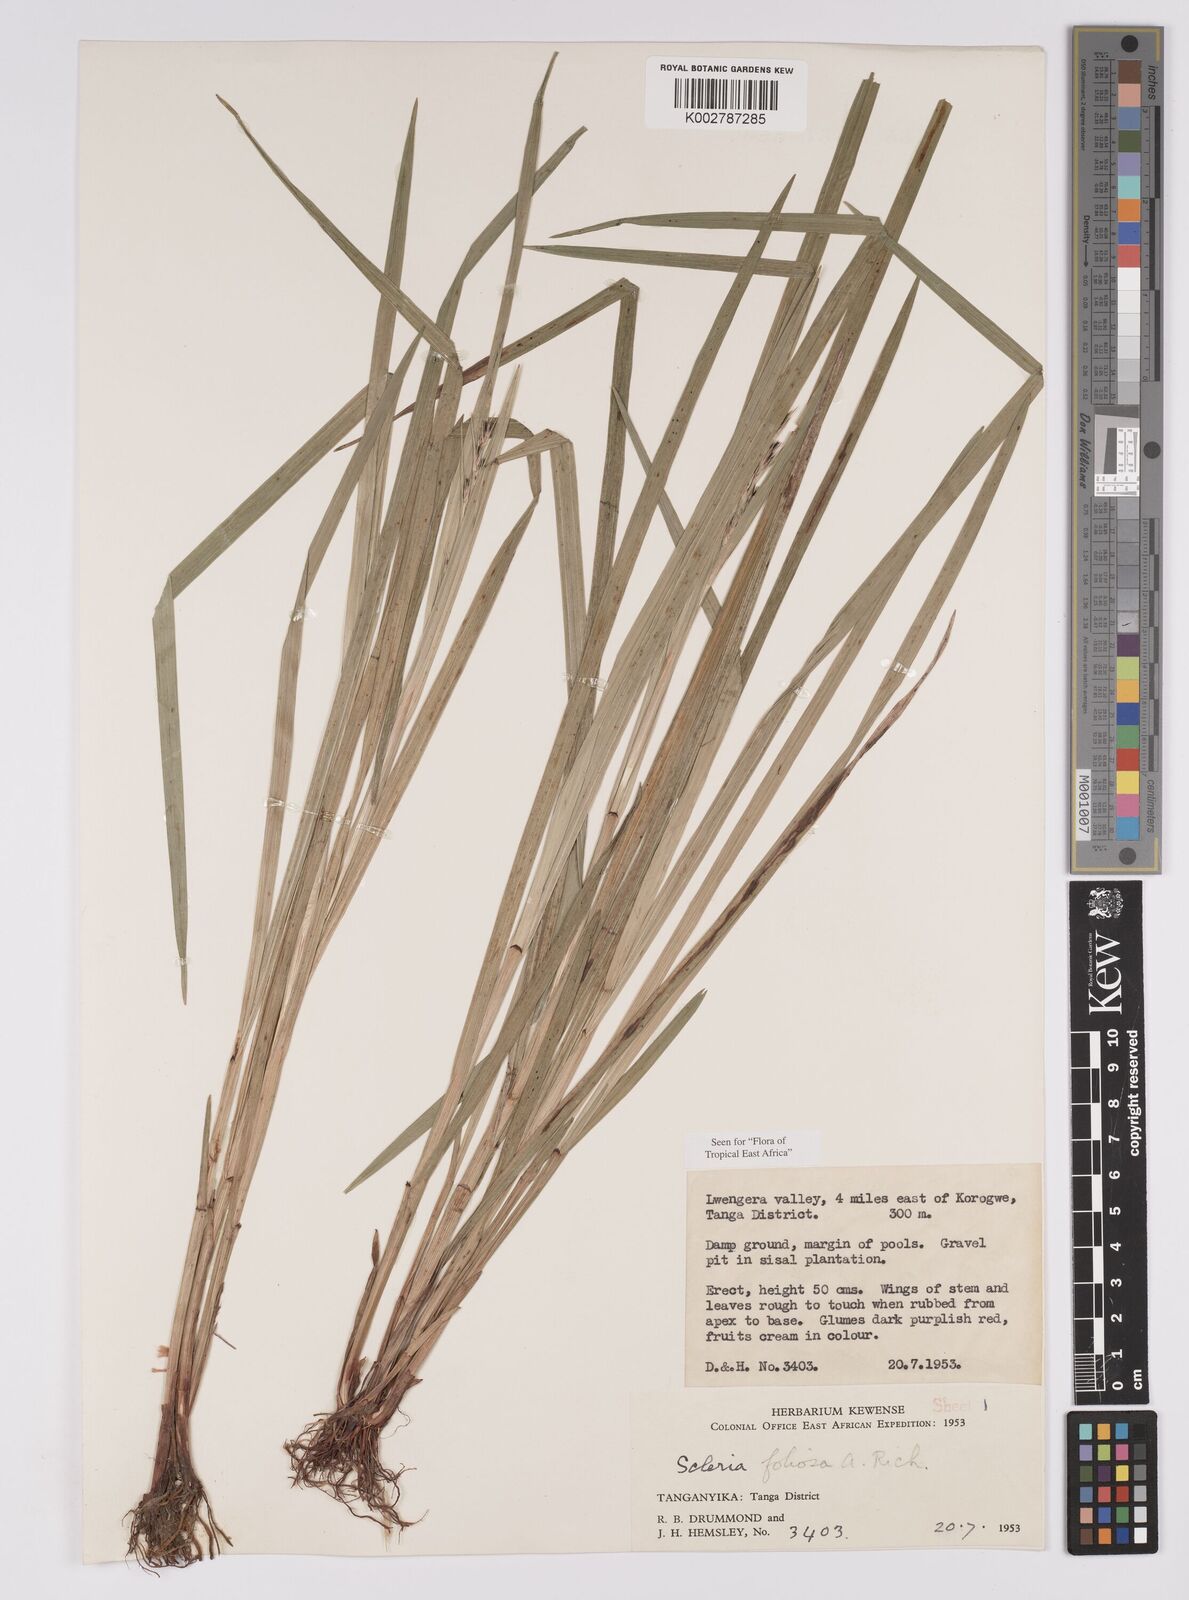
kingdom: Plantae
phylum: Tracheophyta
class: Liliopsida
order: Poales
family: Cyperaceae
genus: Scleria
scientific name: Scleria foliosa
